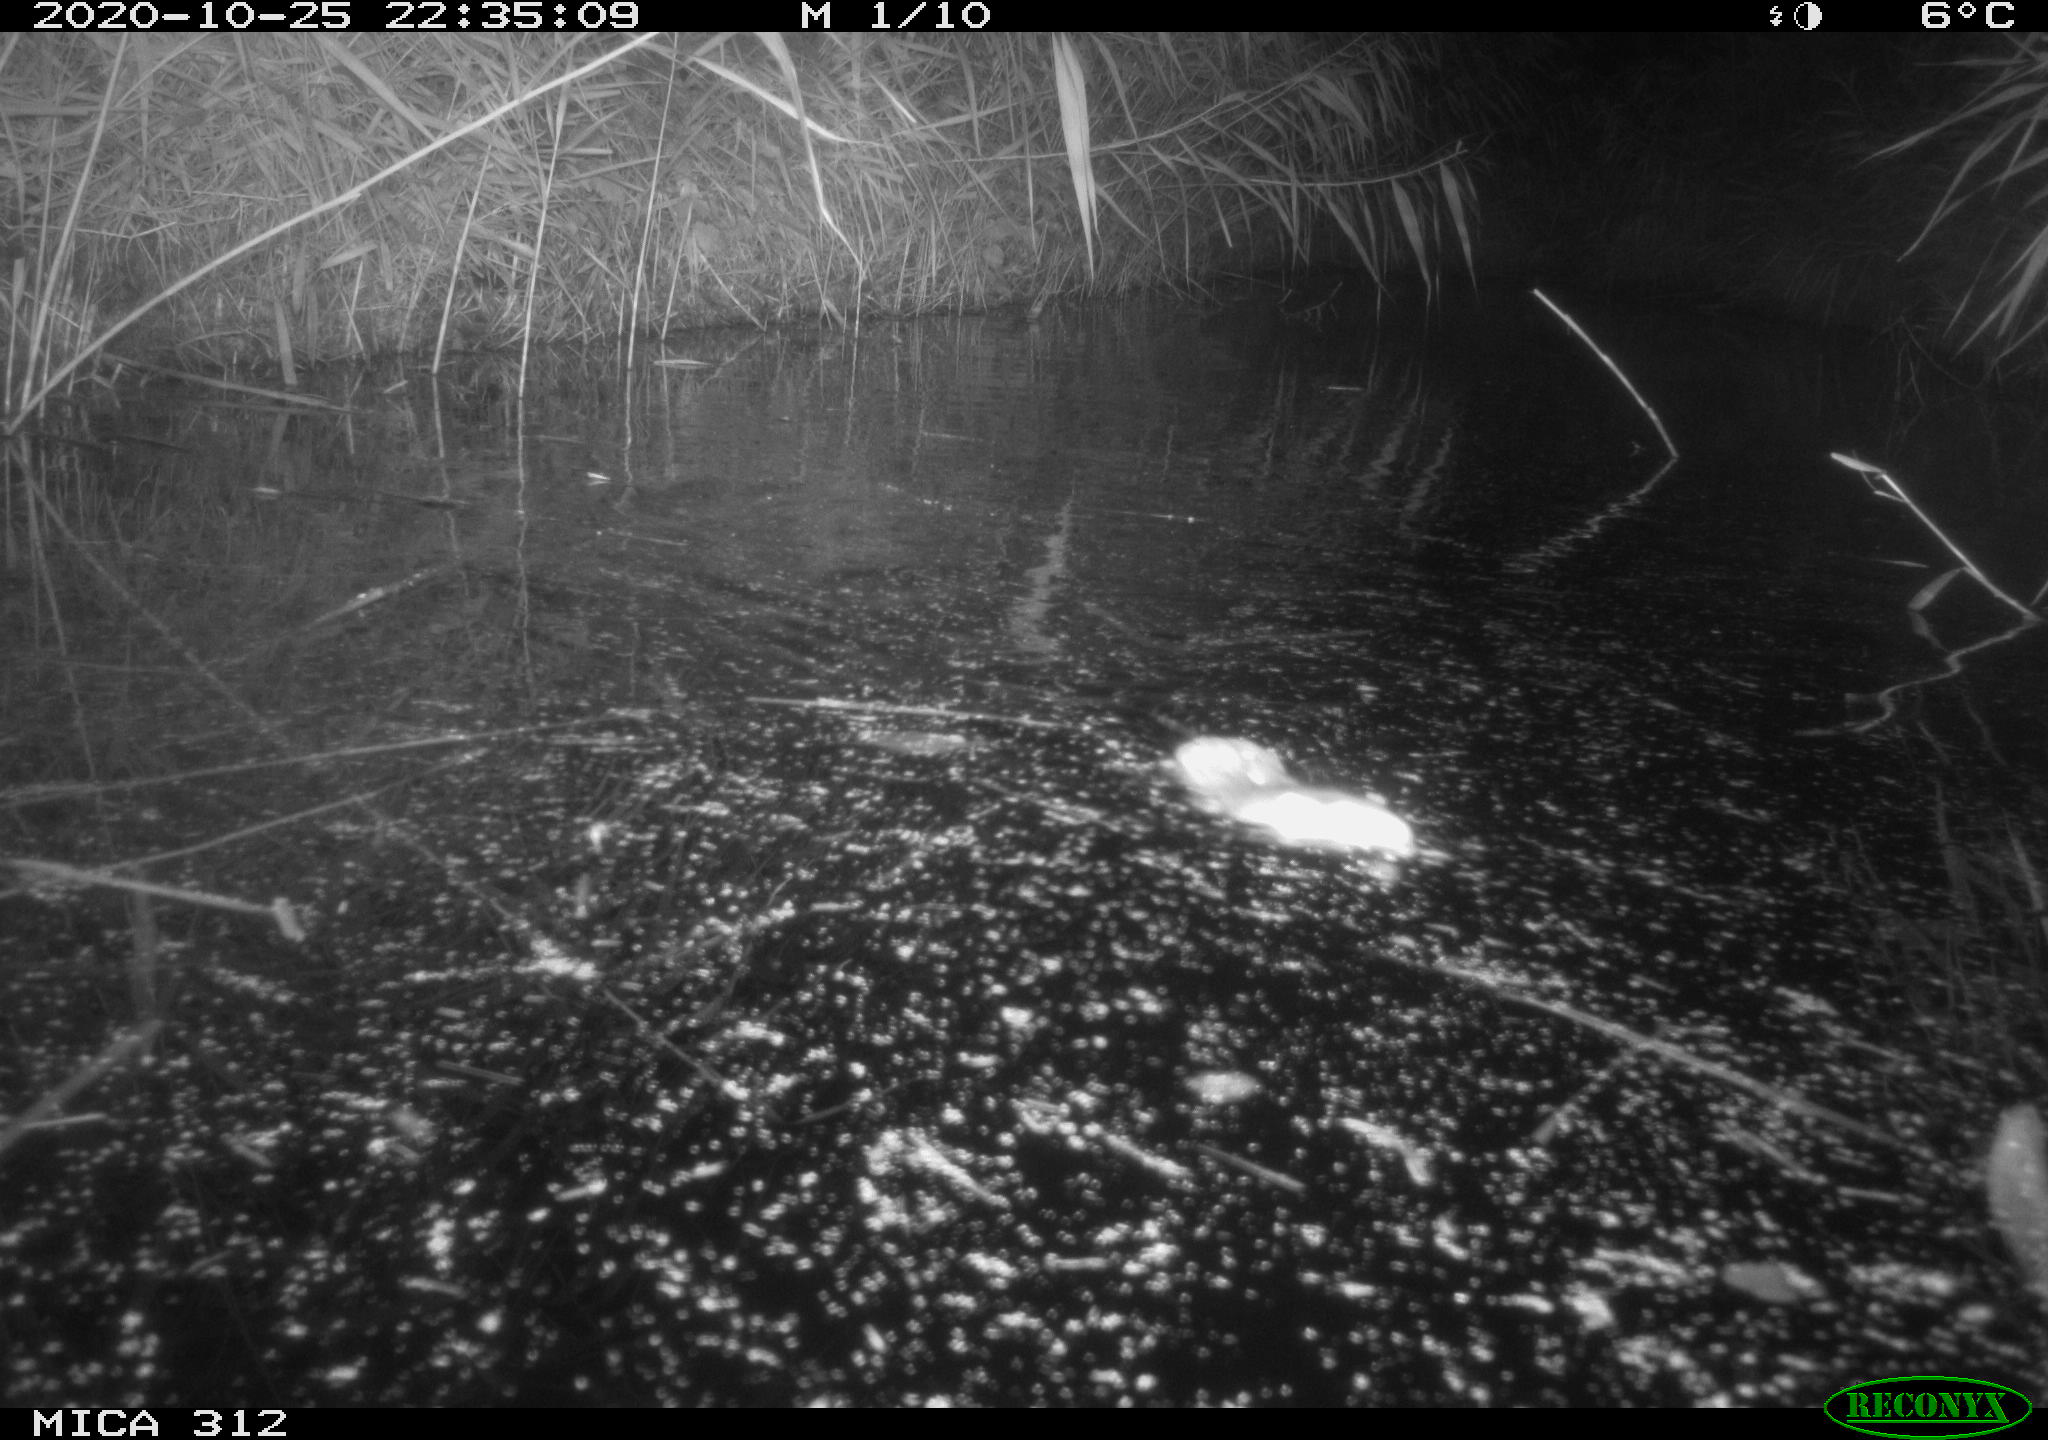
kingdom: Animalia
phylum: Chordata
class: Mammalia
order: Rodentia
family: Muridae
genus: Rattus
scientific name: Rattus norvegicus
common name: Brown rat
